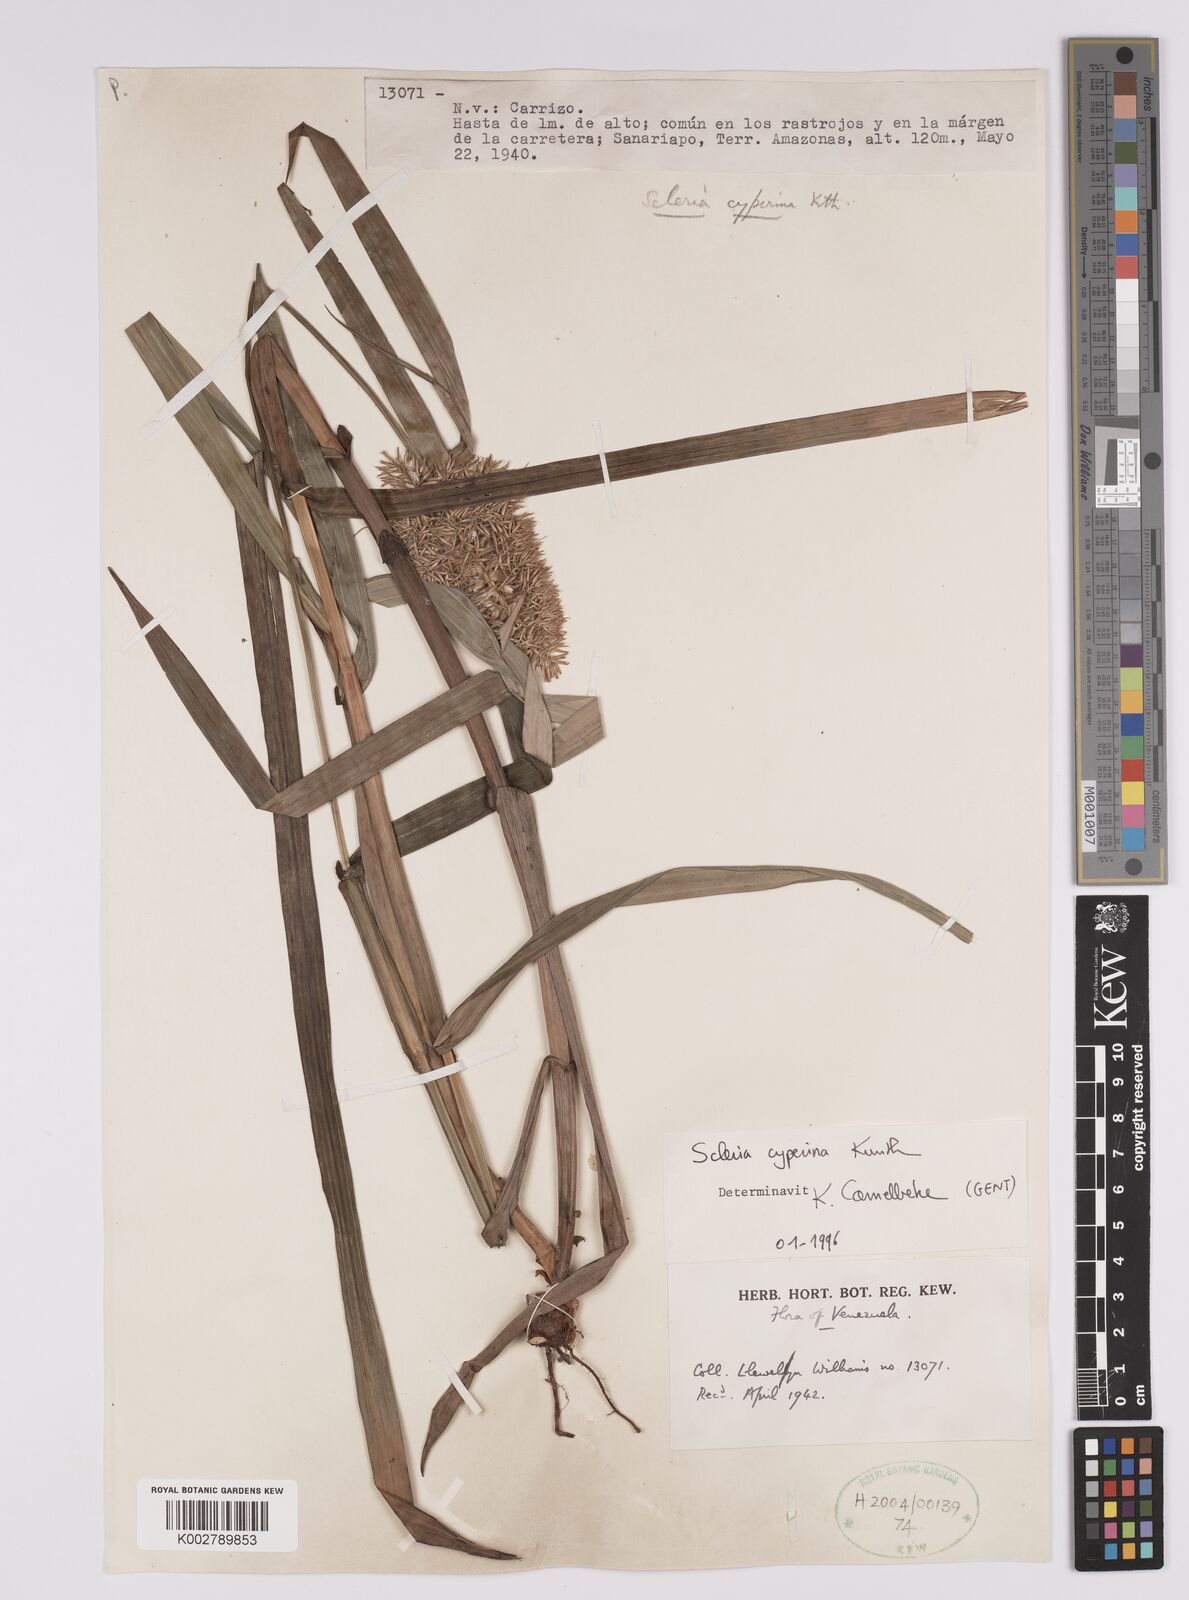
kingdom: Plantae
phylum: Tracheophyta
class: Liliopsida
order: Poales
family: Cyperaceae
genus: Scleria
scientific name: Scleria cyperina
